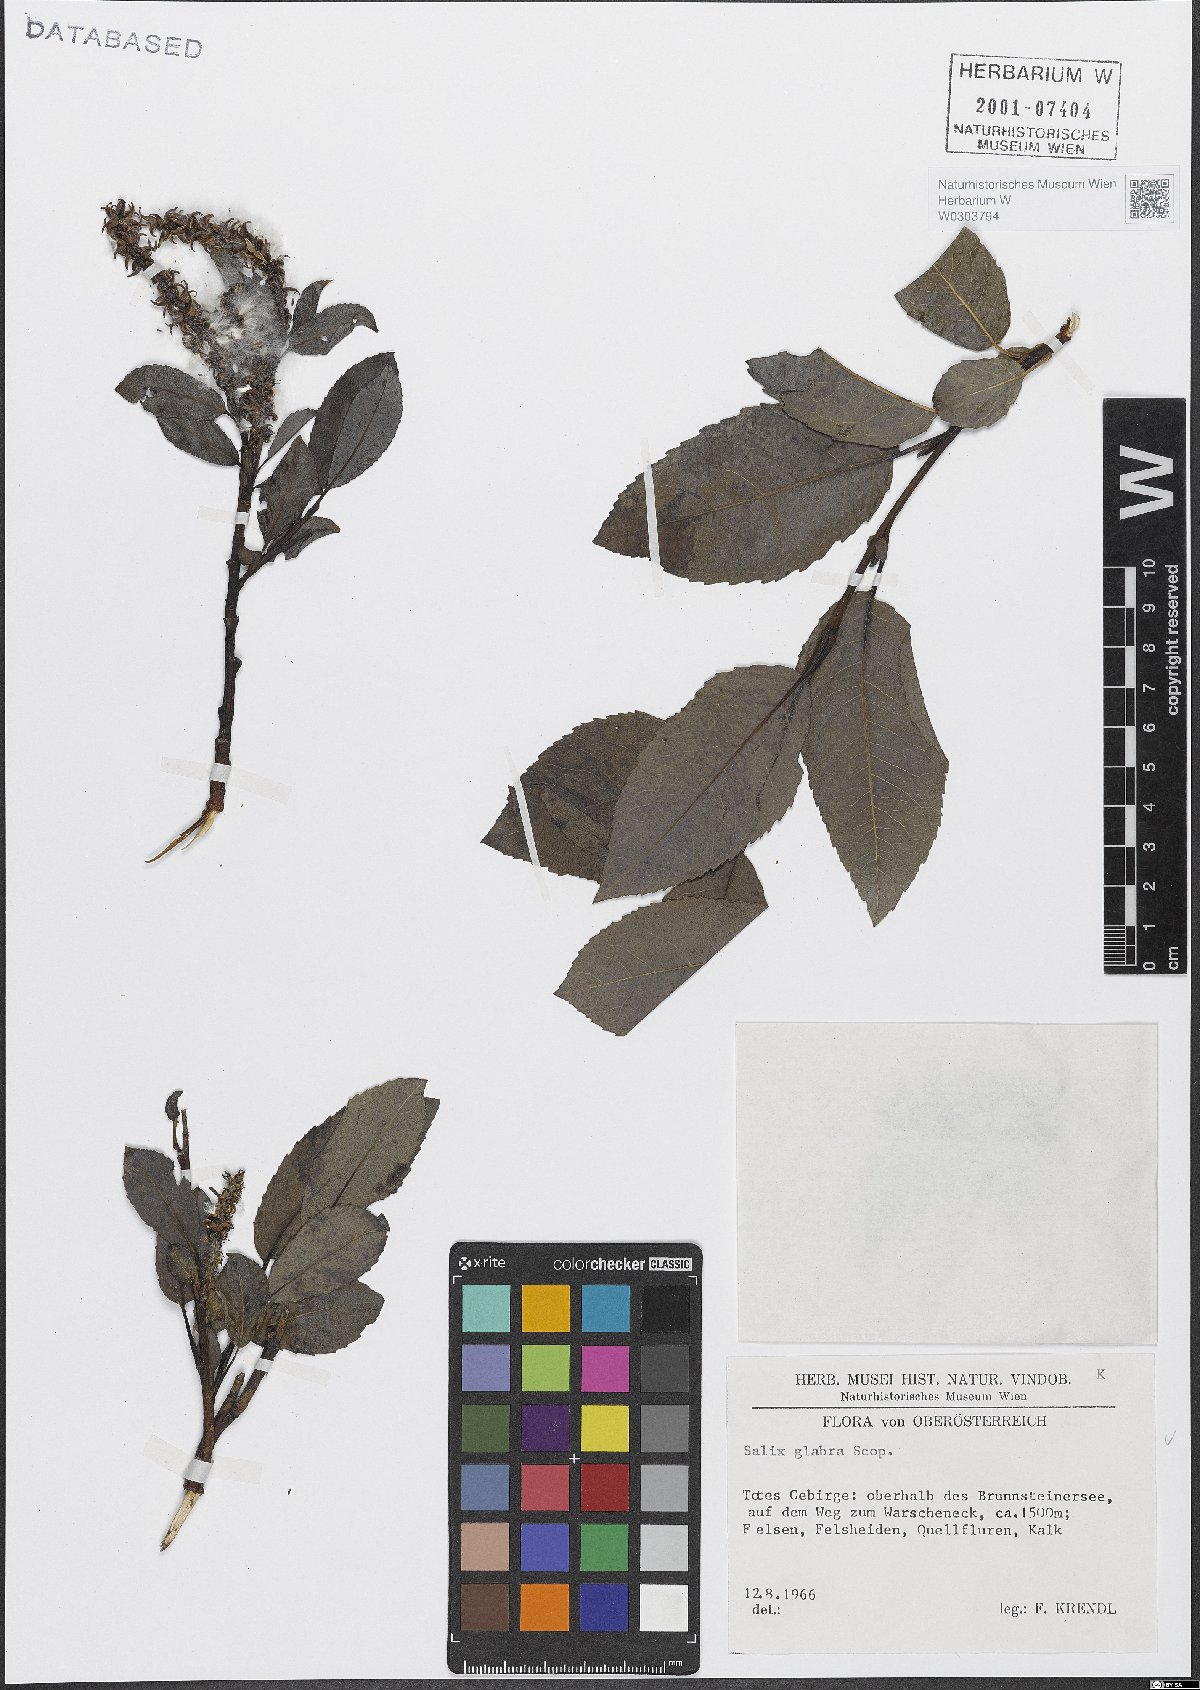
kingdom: Plantae
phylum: Tracheophyta
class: Magnoliopsida
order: Malpighiales
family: Salicaceae
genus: Salix
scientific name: Salix glabra
